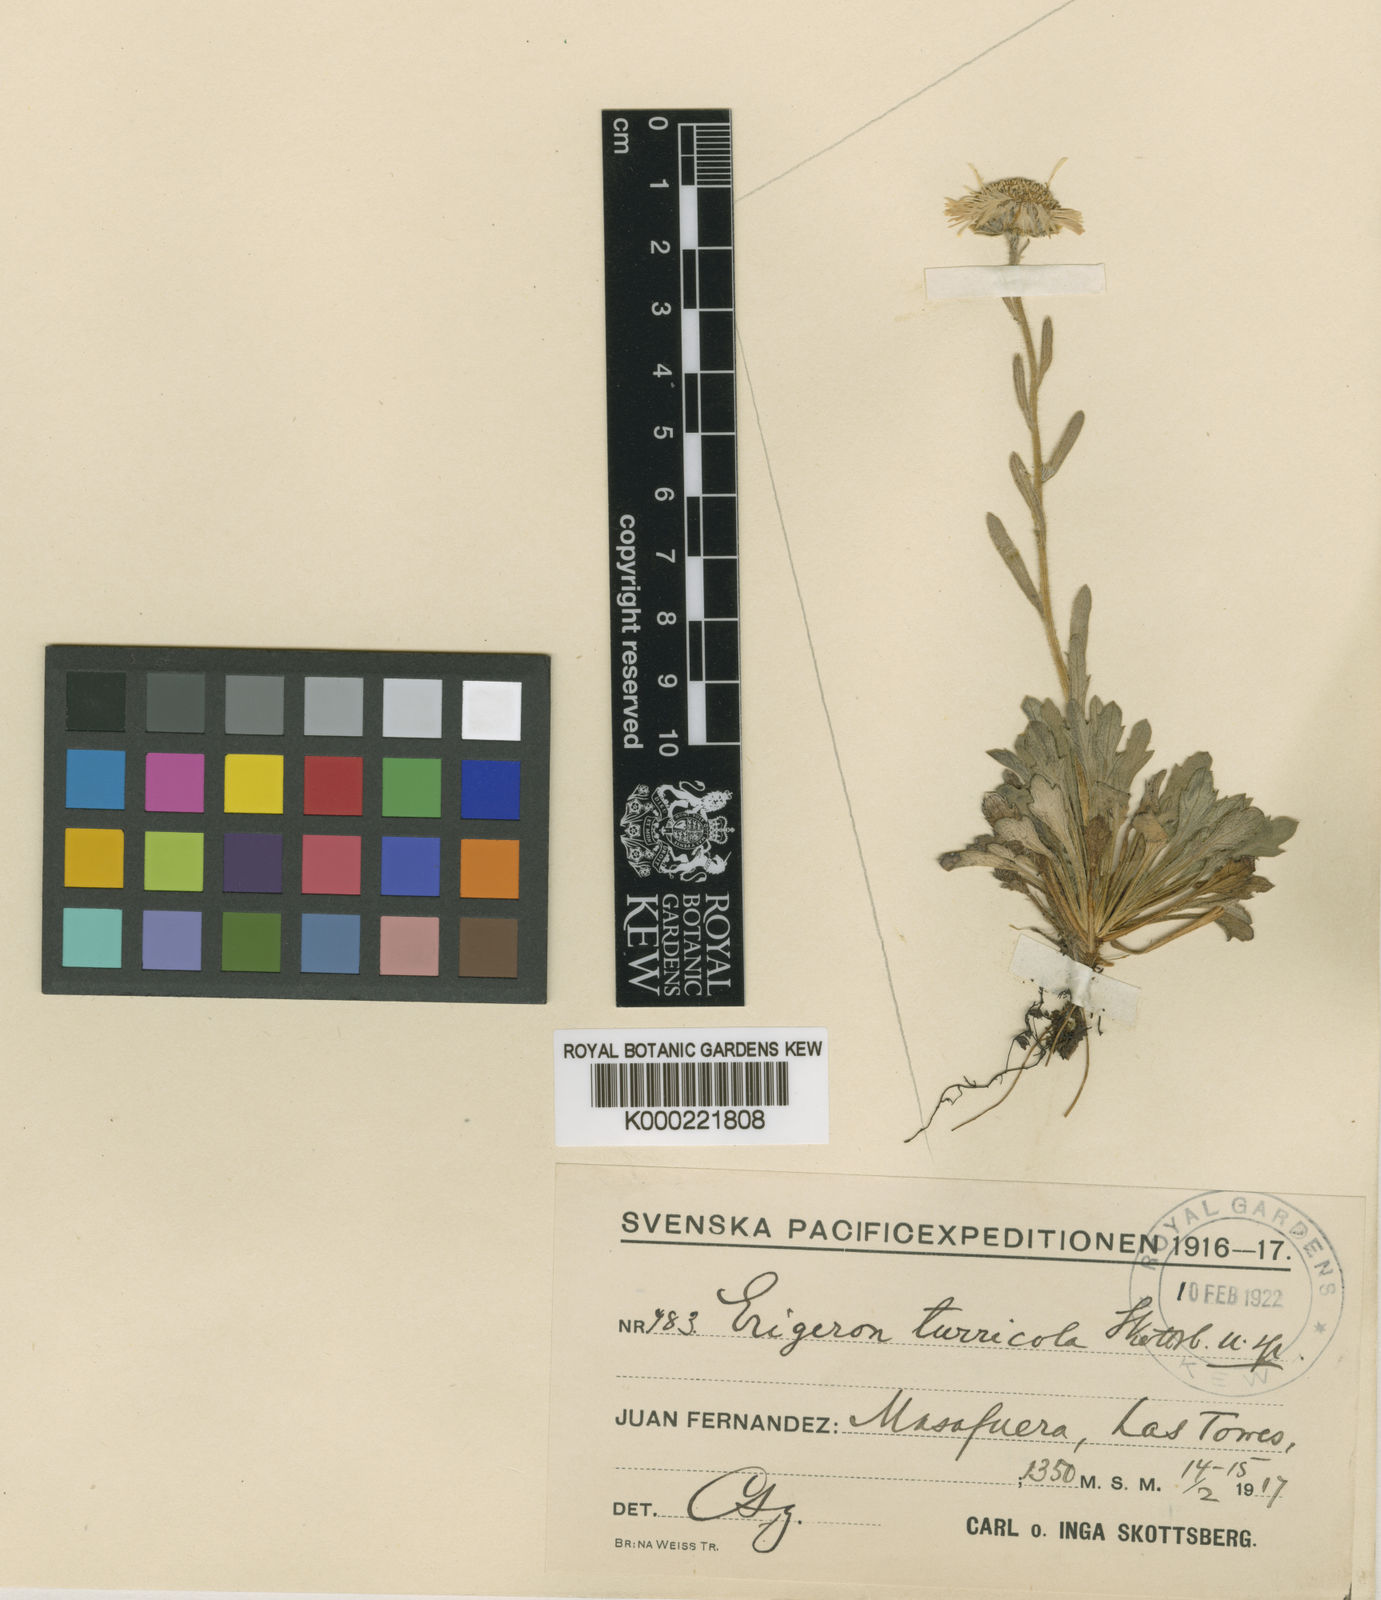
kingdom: Plantae
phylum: Tracheophyta
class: Magnoliopsida
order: Asterales
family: Asteraceae
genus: Erigeron
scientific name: Erigeron ingae
